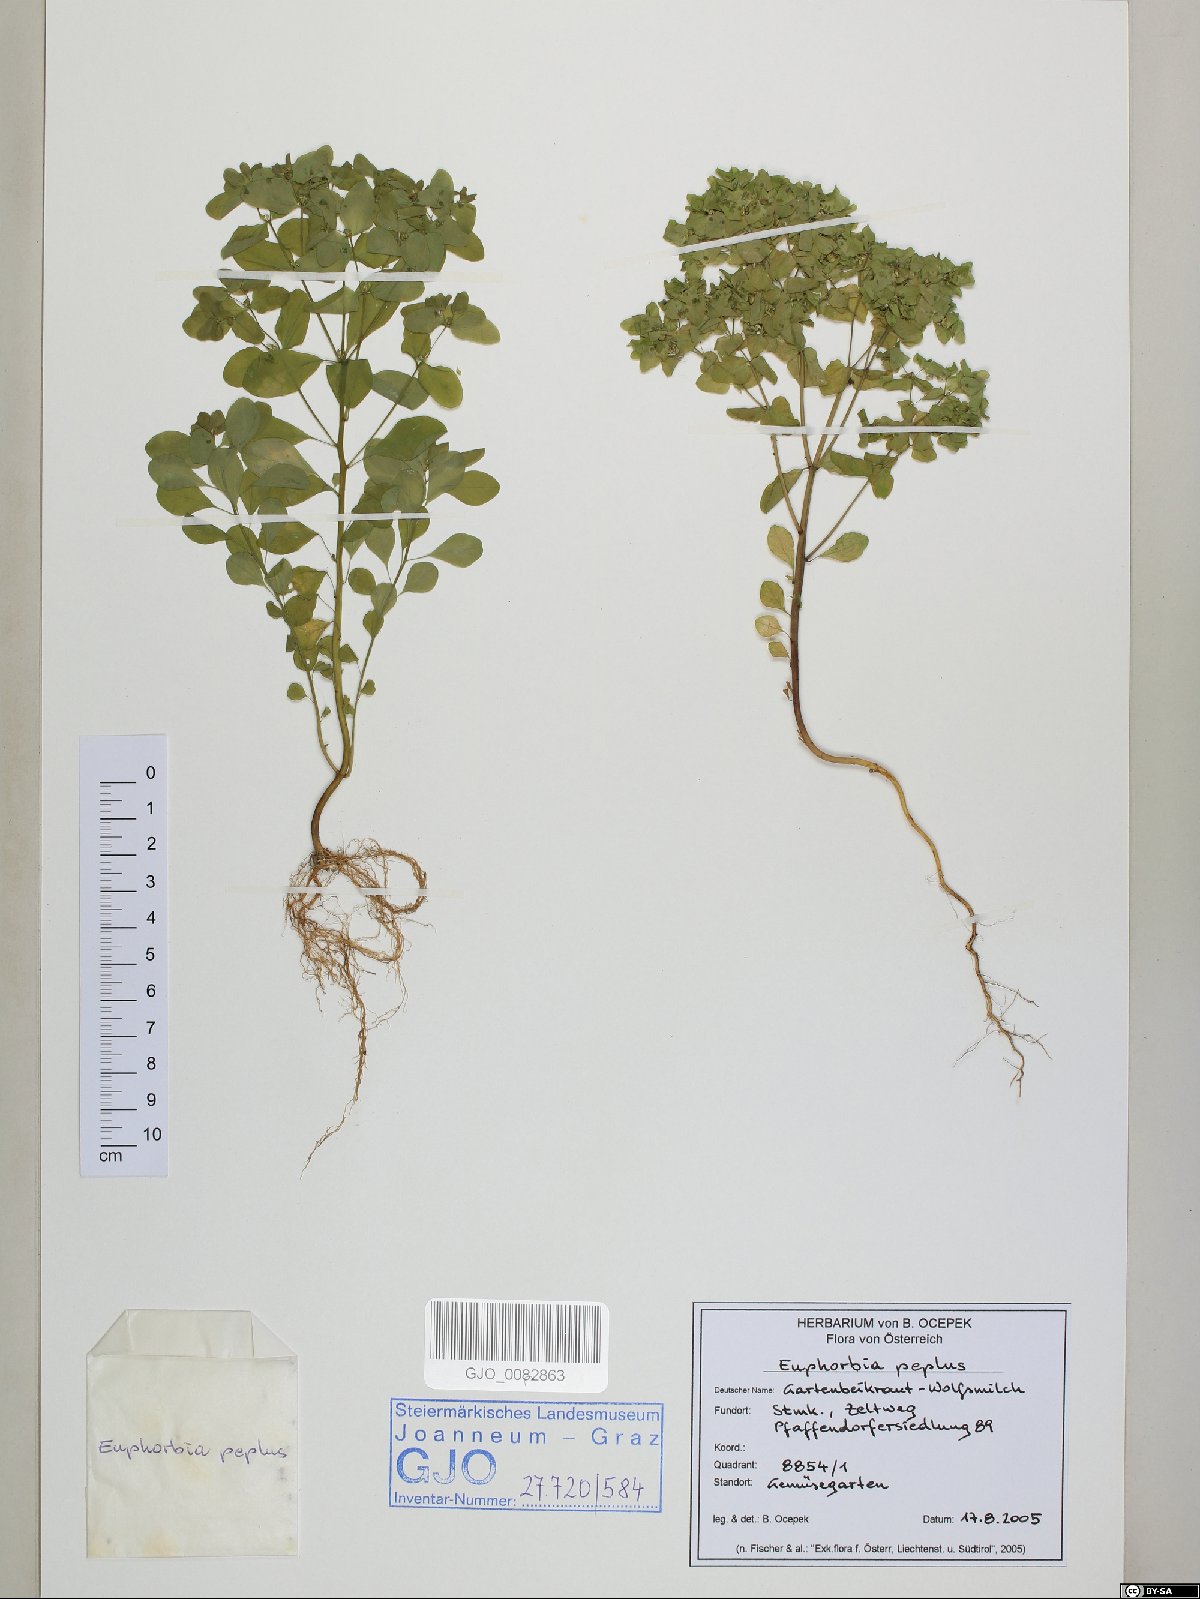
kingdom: Plantae
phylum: Tracheophyta
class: Magnoliopsida
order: Malpighiales
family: Euphorbiaceae
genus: Euphorbia
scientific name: Euphorbia peplus
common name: Petty spurge
